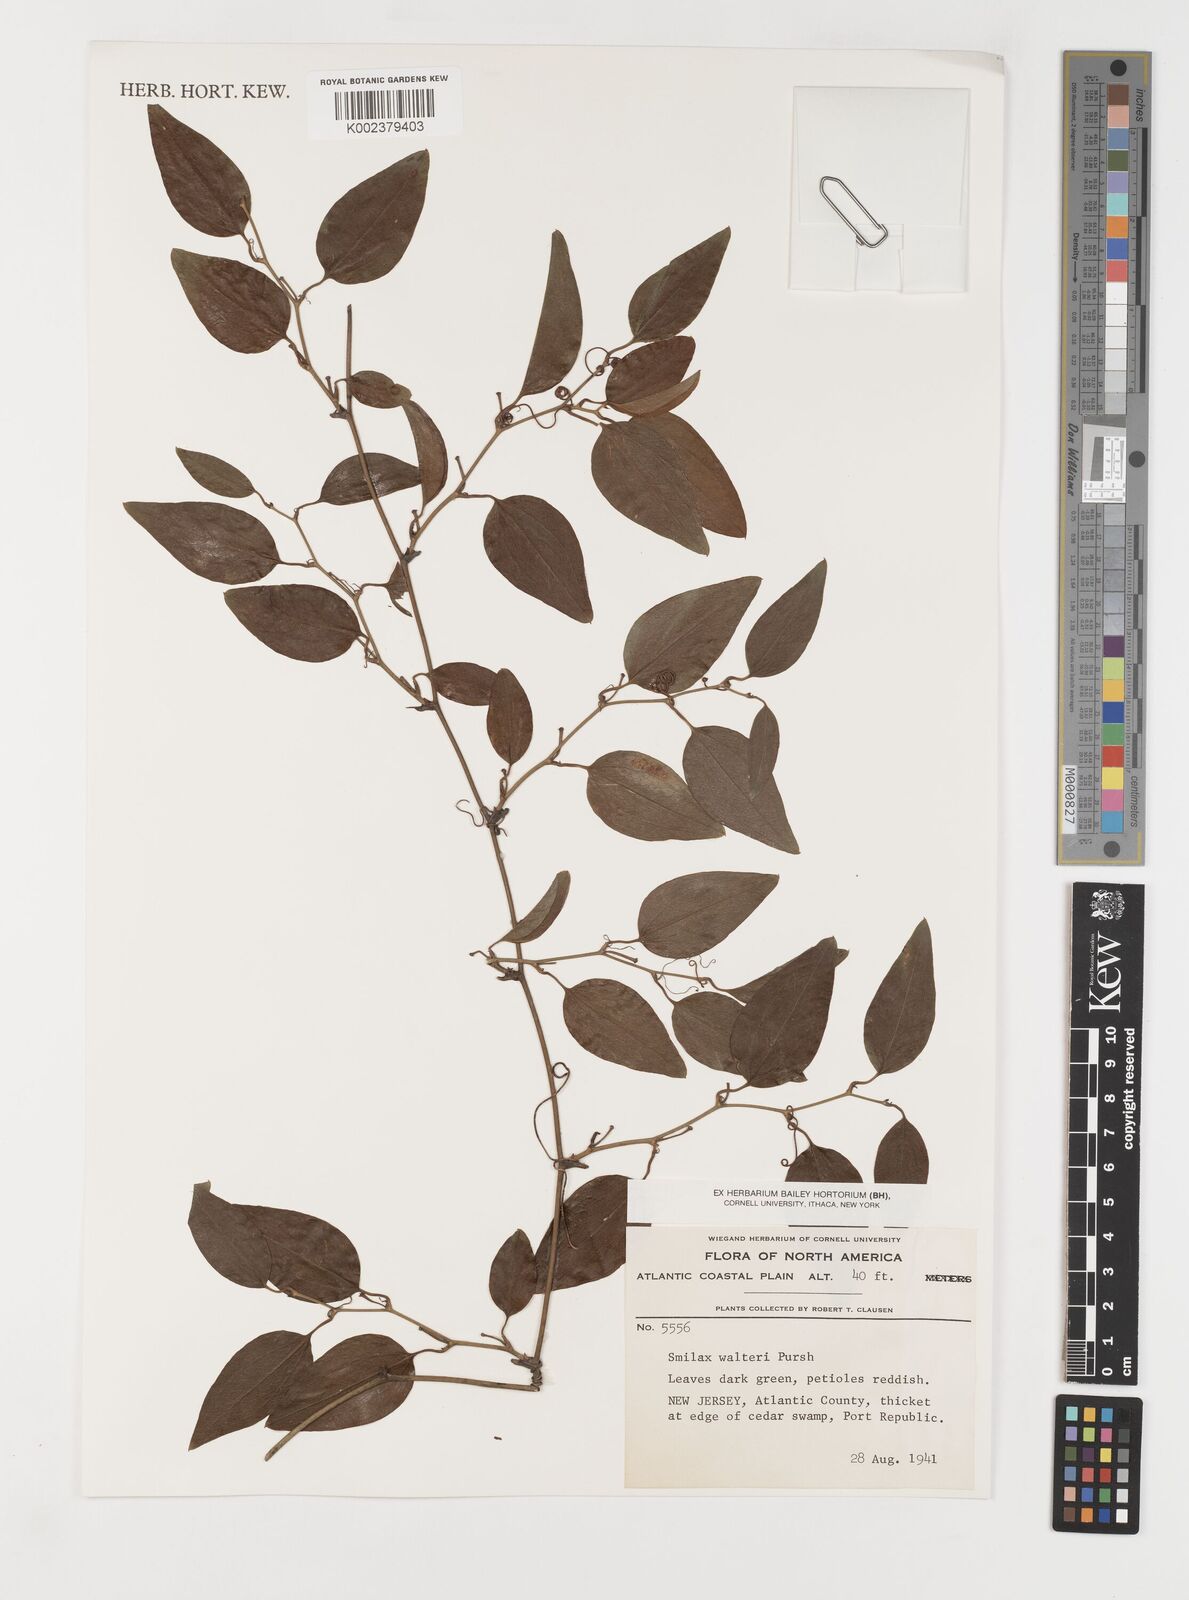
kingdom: Plantae
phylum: Tracheophyta
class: Liliopsida
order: Liliales
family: Smilacaceae
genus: Smilax
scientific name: Smilax walteri
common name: Coral greenbrier
